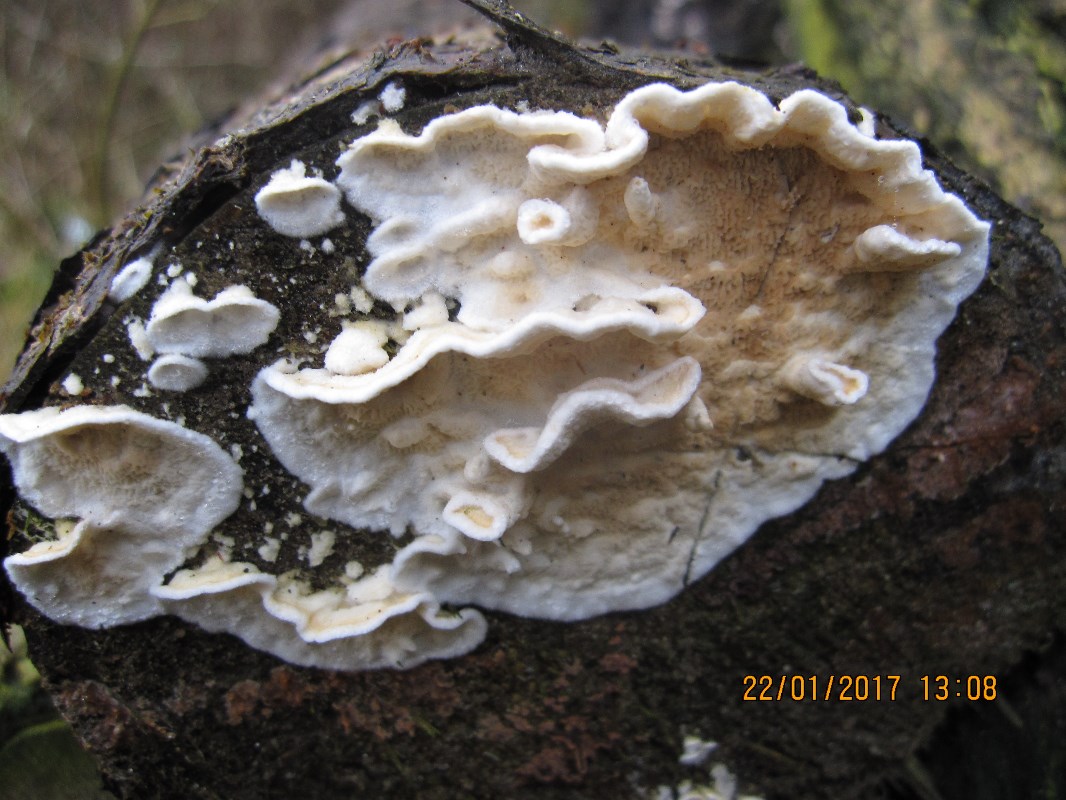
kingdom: Fungi
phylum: Basidiomycota
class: Agaricomycetes
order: Polyporales
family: Irpicaceae
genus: Byssomerulius
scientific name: Byssomerulius corium
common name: læder-åresvamp
